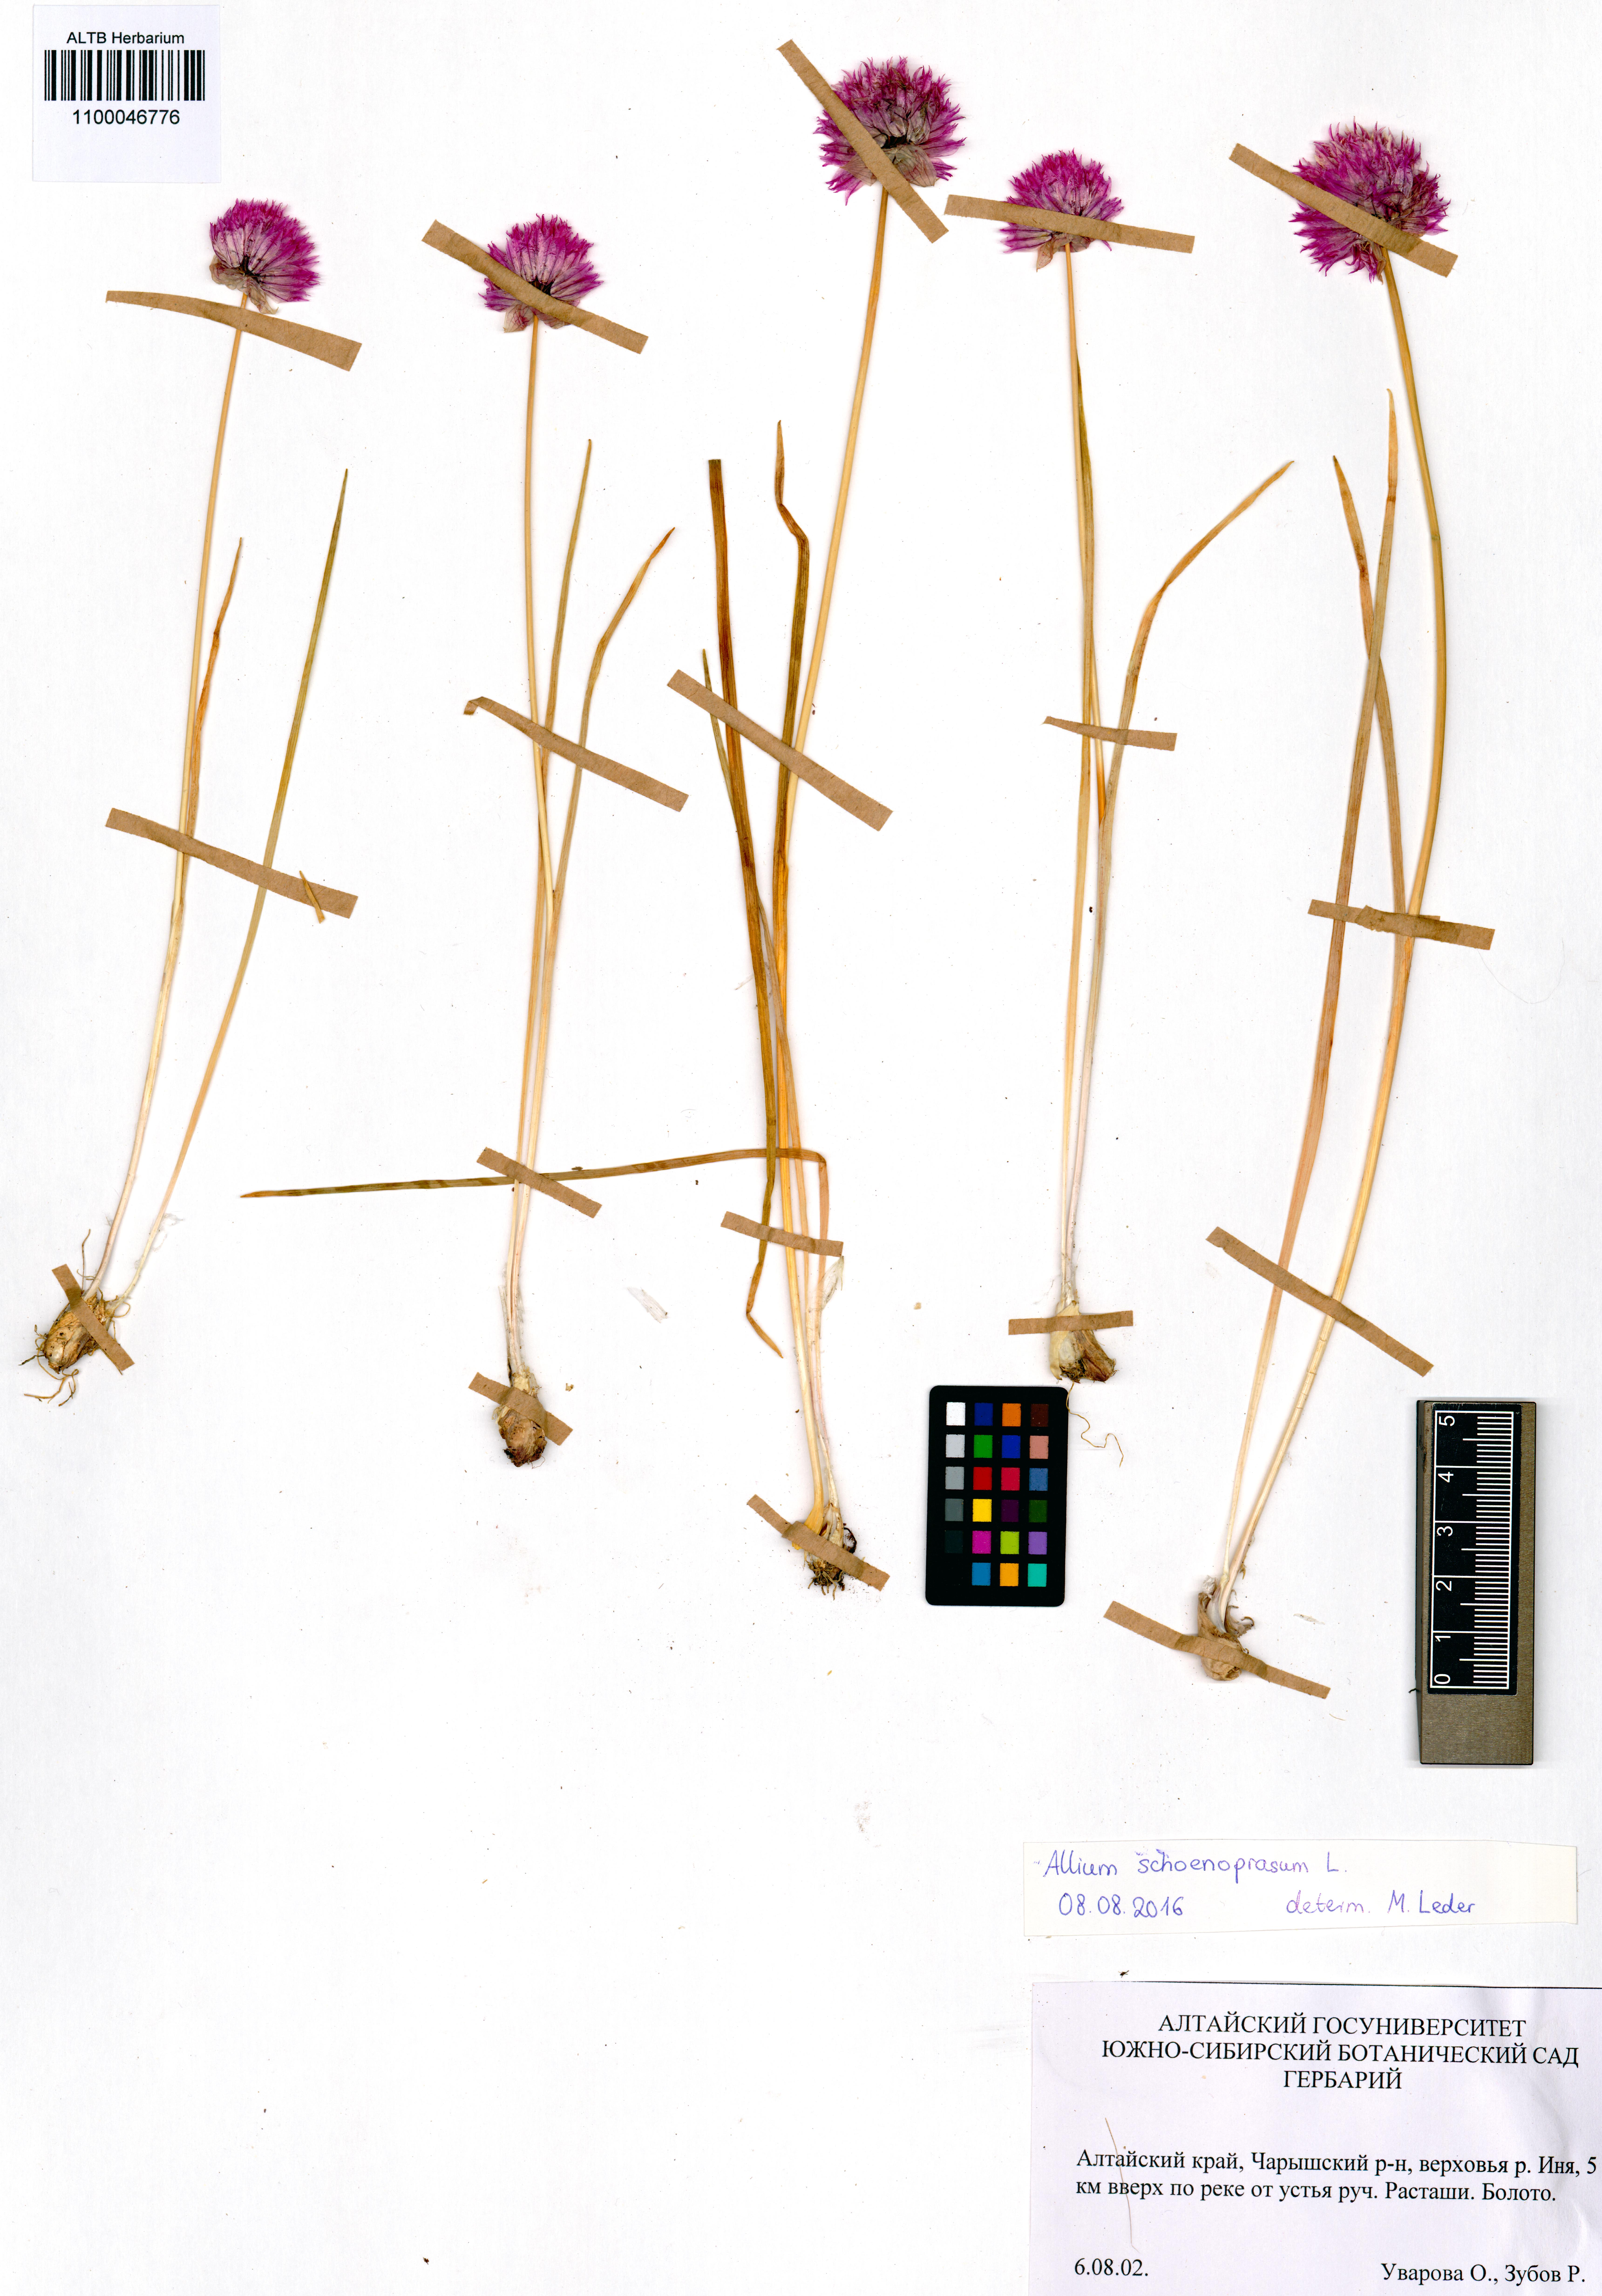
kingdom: Plantae
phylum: Tracheophyta
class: Liliopsida
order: Asparagales
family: Amaryllidaceae
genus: Allium
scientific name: Allium schoenoprasum
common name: Chives
